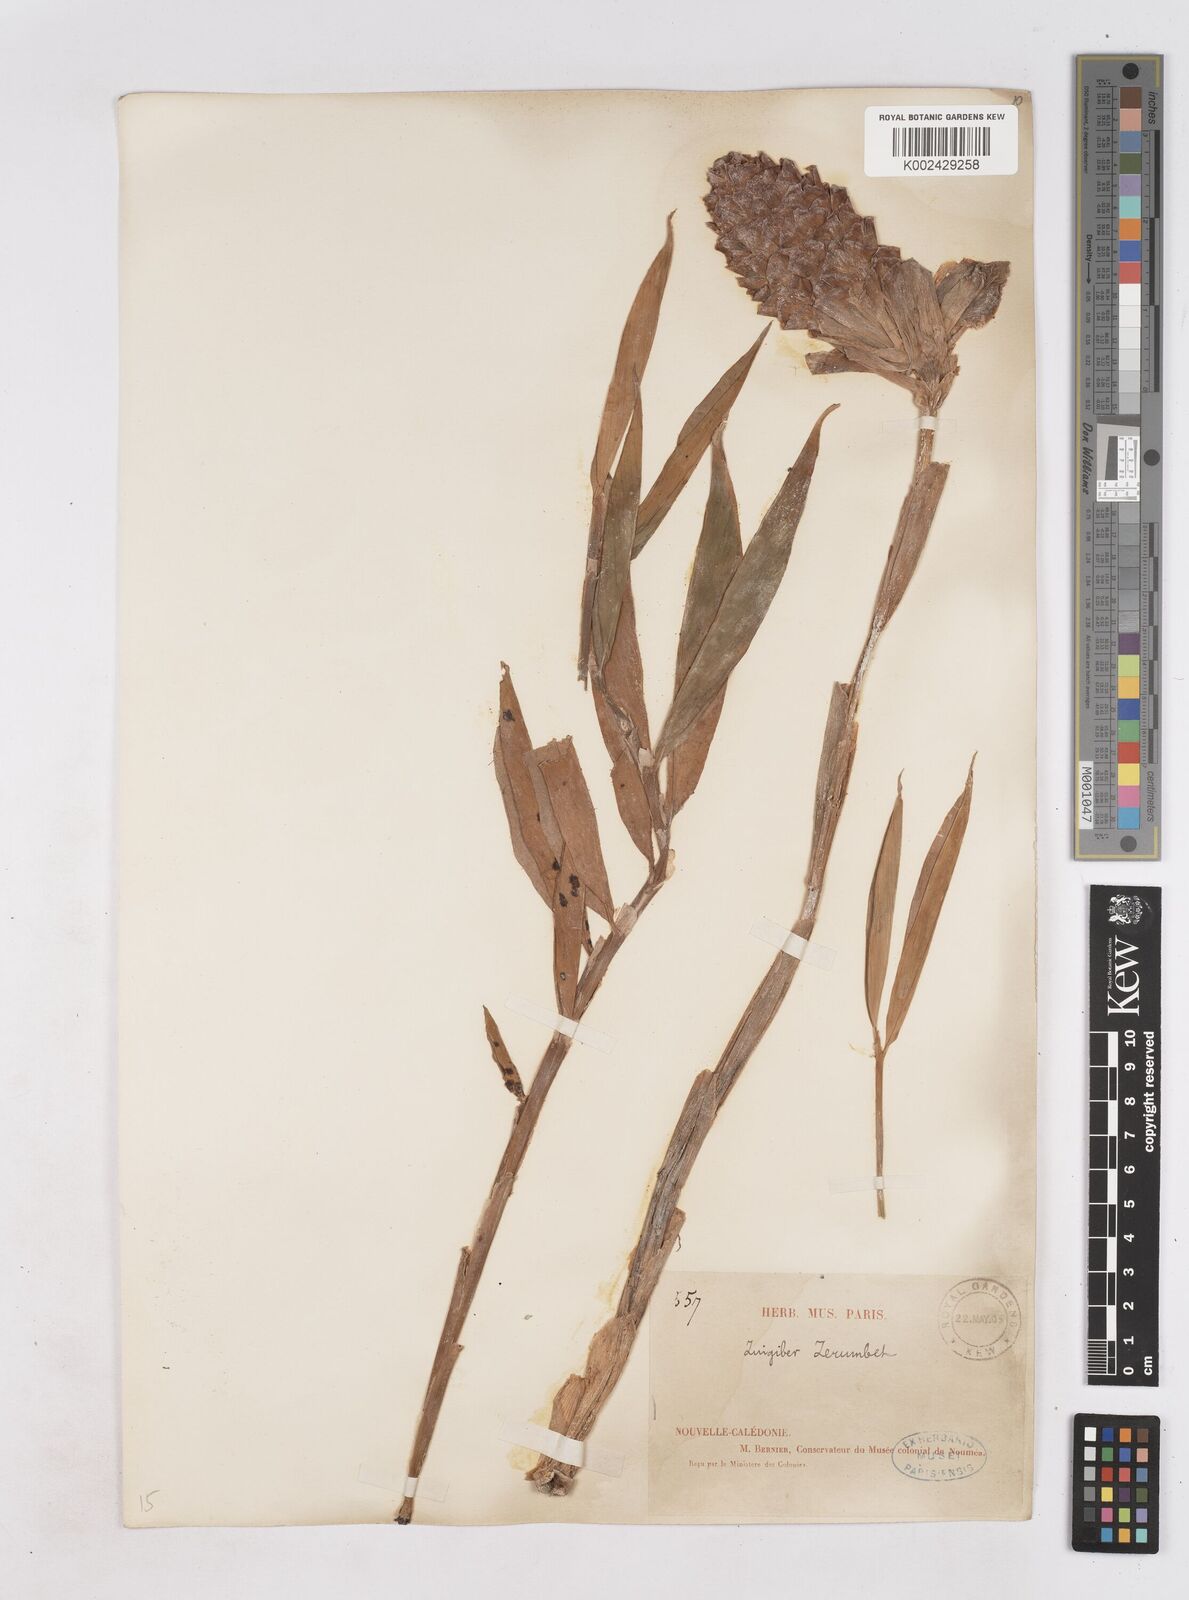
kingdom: Plantae
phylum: Tracheophyta
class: Liliopsida
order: Zingiberales
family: Zingiberaceae
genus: Zingiber
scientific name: Zingiber zerumbet
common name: Bitter ginger
